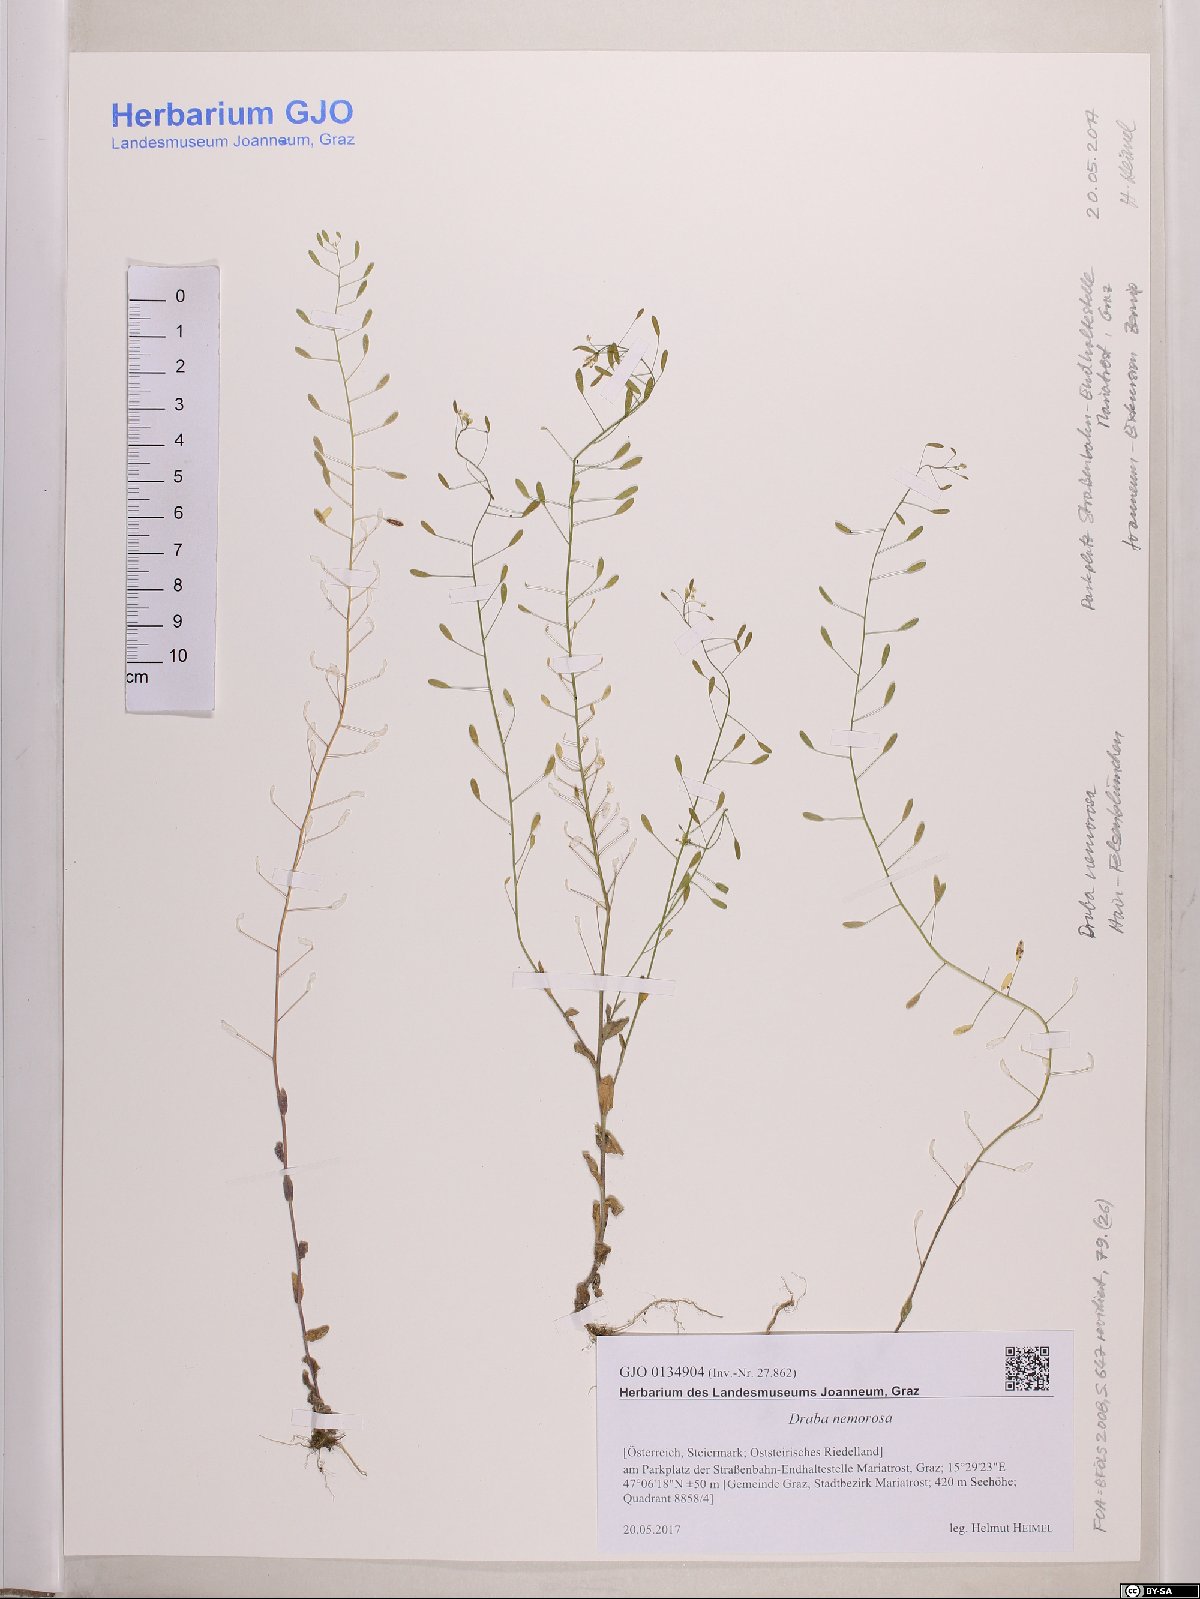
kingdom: Plantae
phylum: Tracheophyta
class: Magnoliopsida
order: Brassicales
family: Brassicaceae
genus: Draba
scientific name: Draba nemorosa
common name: Wood whitlow-grass
